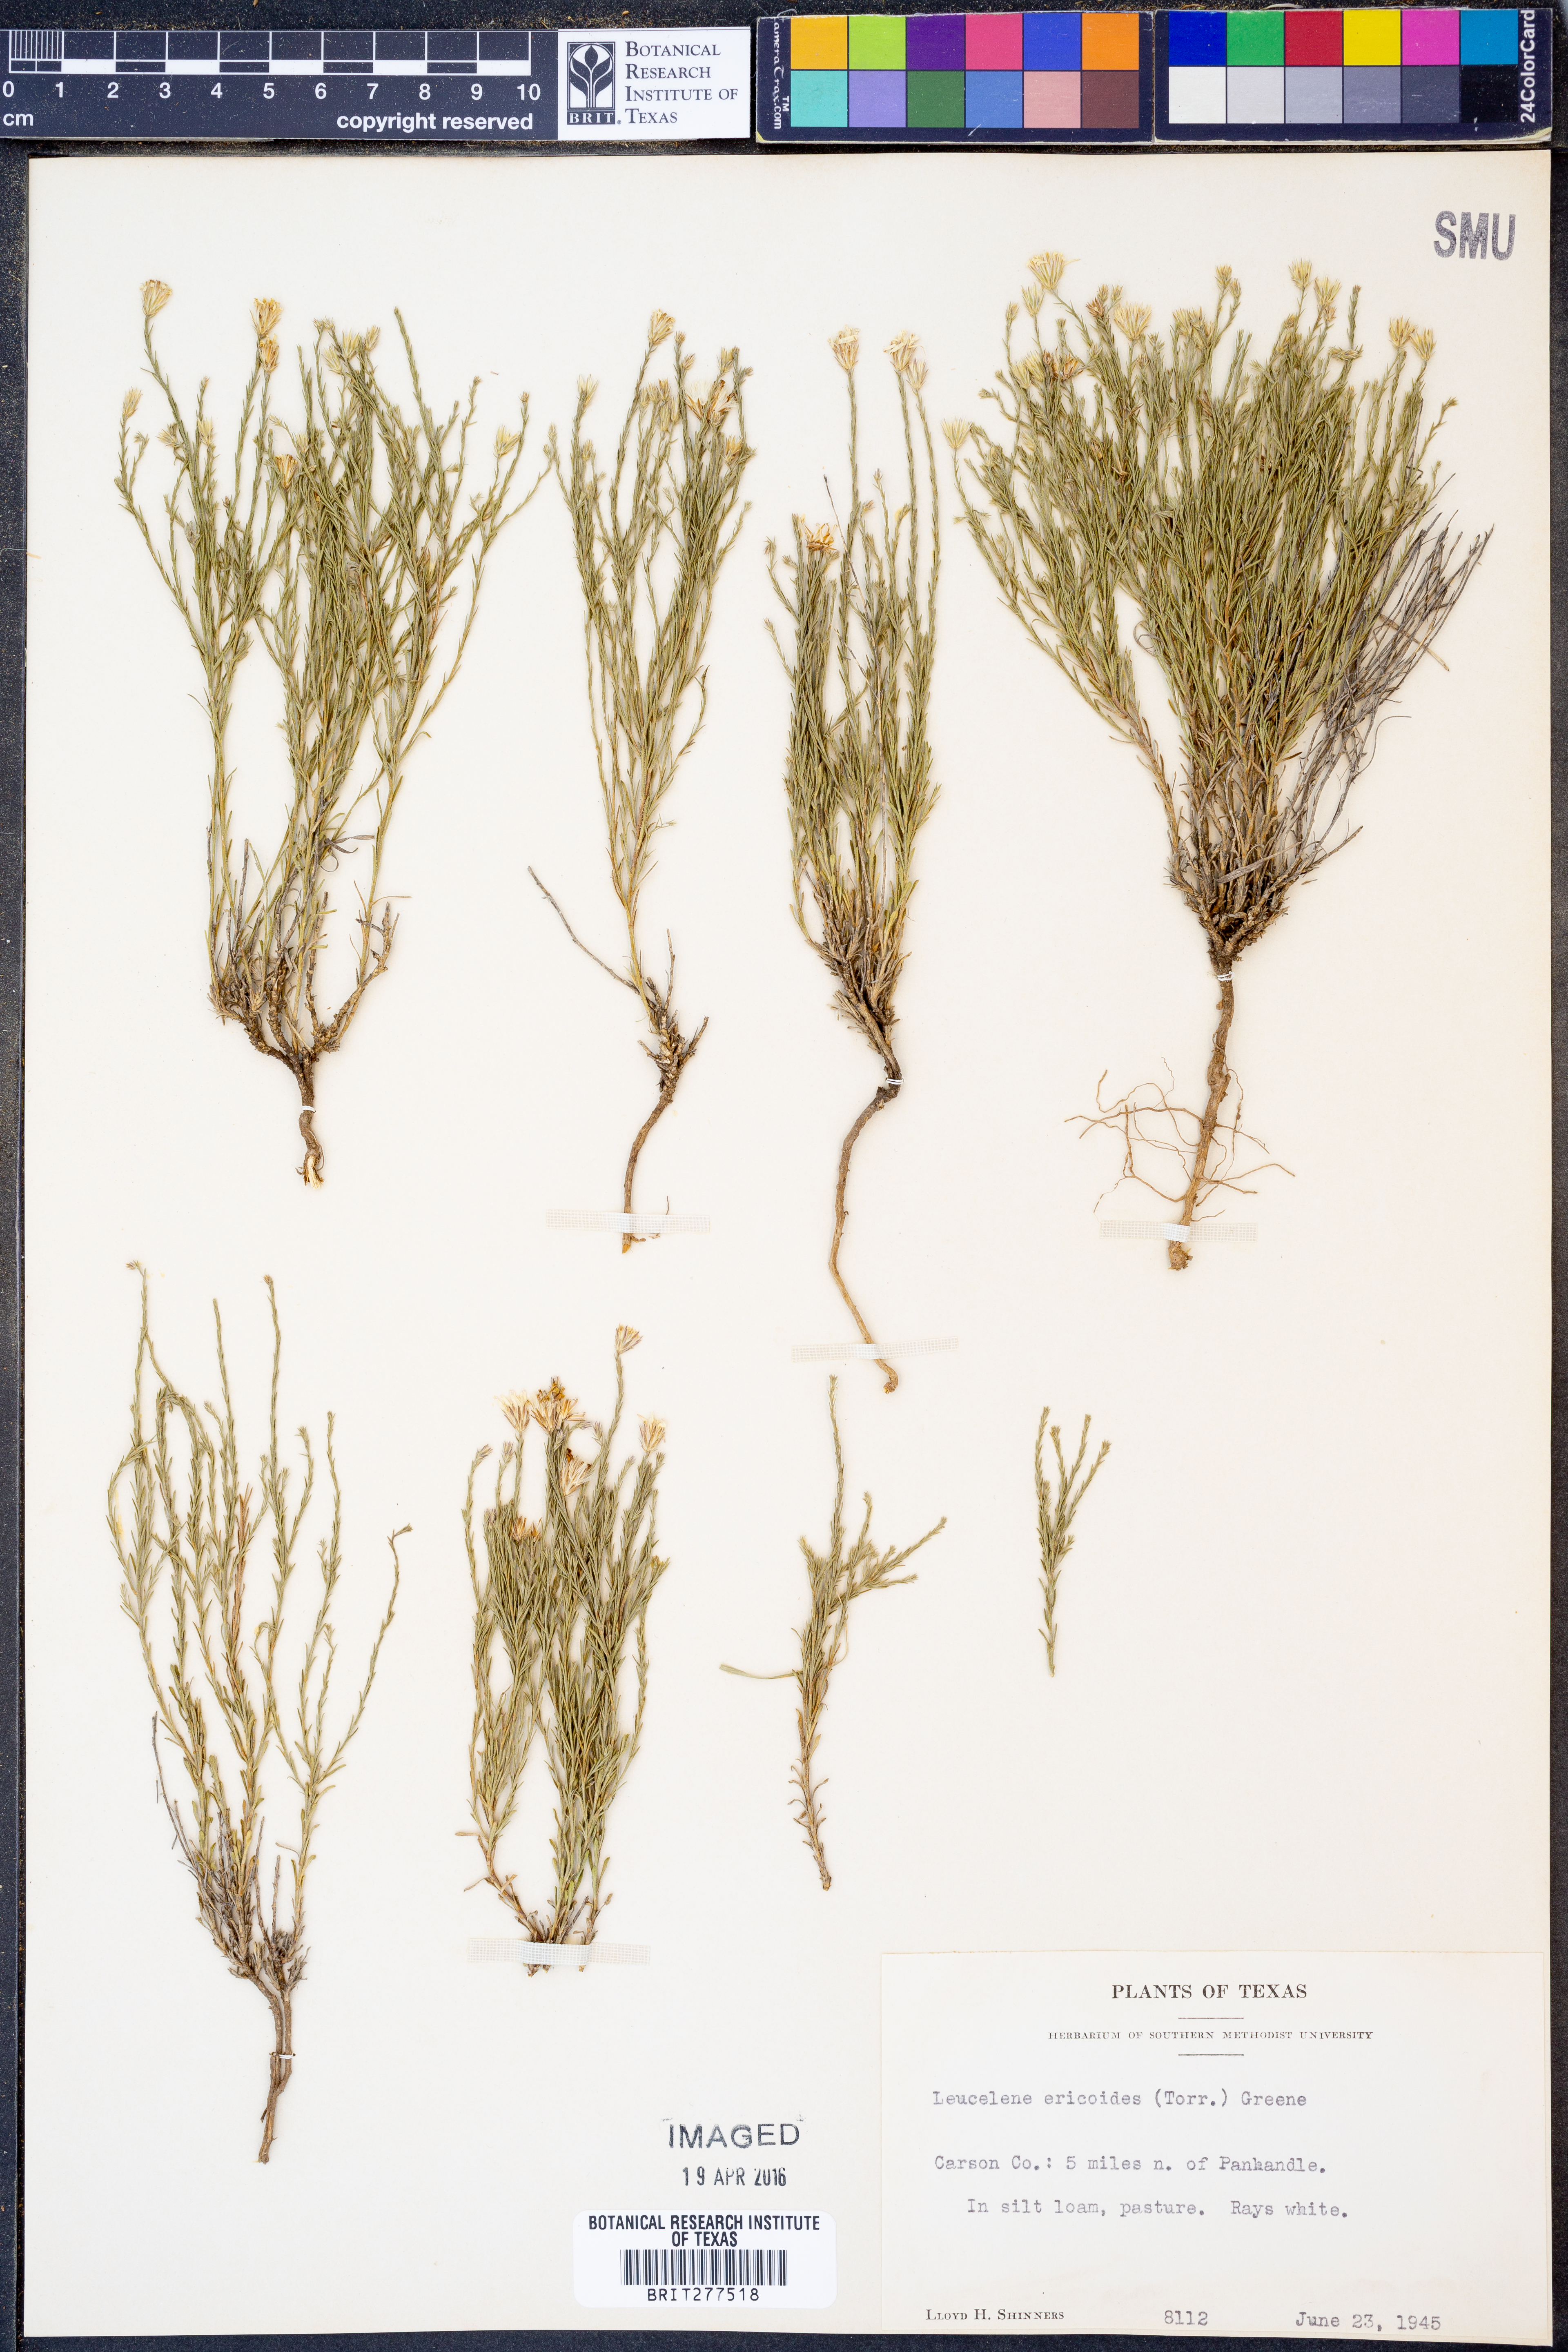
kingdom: Plantae
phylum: Tracheophyta
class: Magnoliopsida
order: Asterales
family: Asteraceae
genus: Chaetopappa
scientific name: Chaetopappa ericoides
